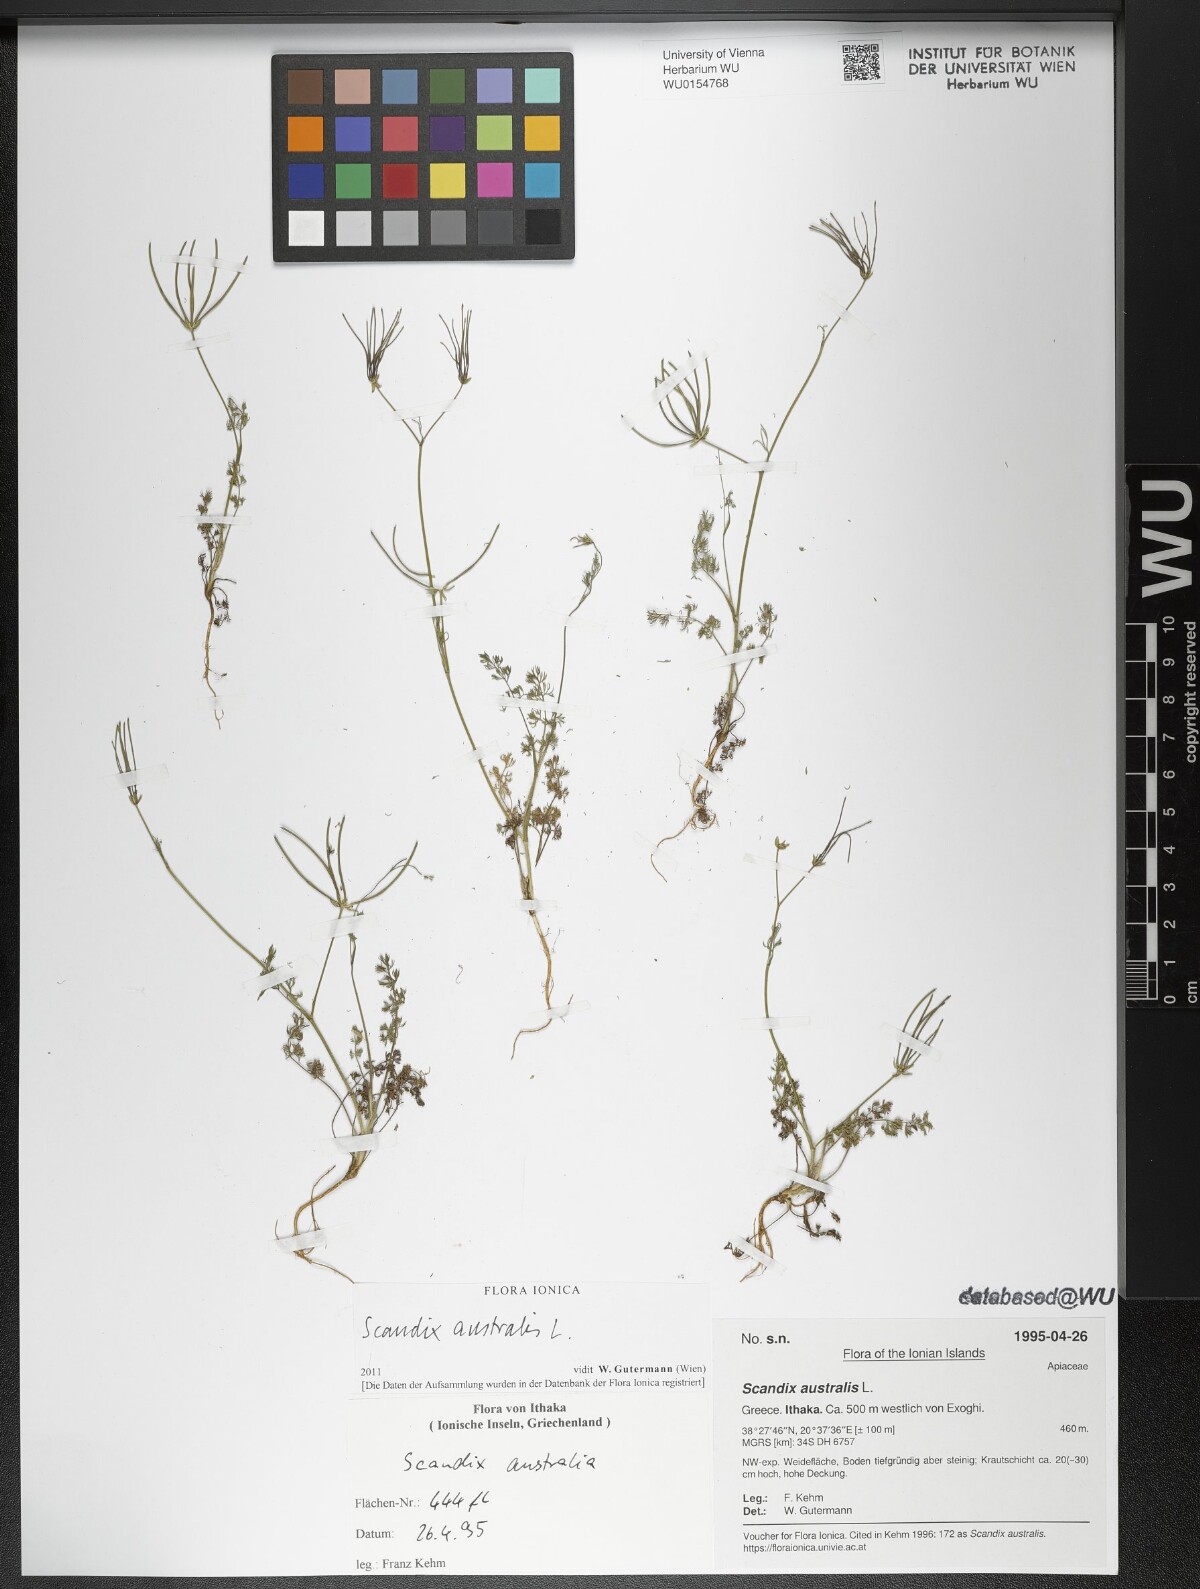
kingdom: Plantae
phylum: Tracheophyta
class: Magnoliopsida
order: Apiales
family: Apiaceae
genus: Scandix
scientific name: Scandix australis
